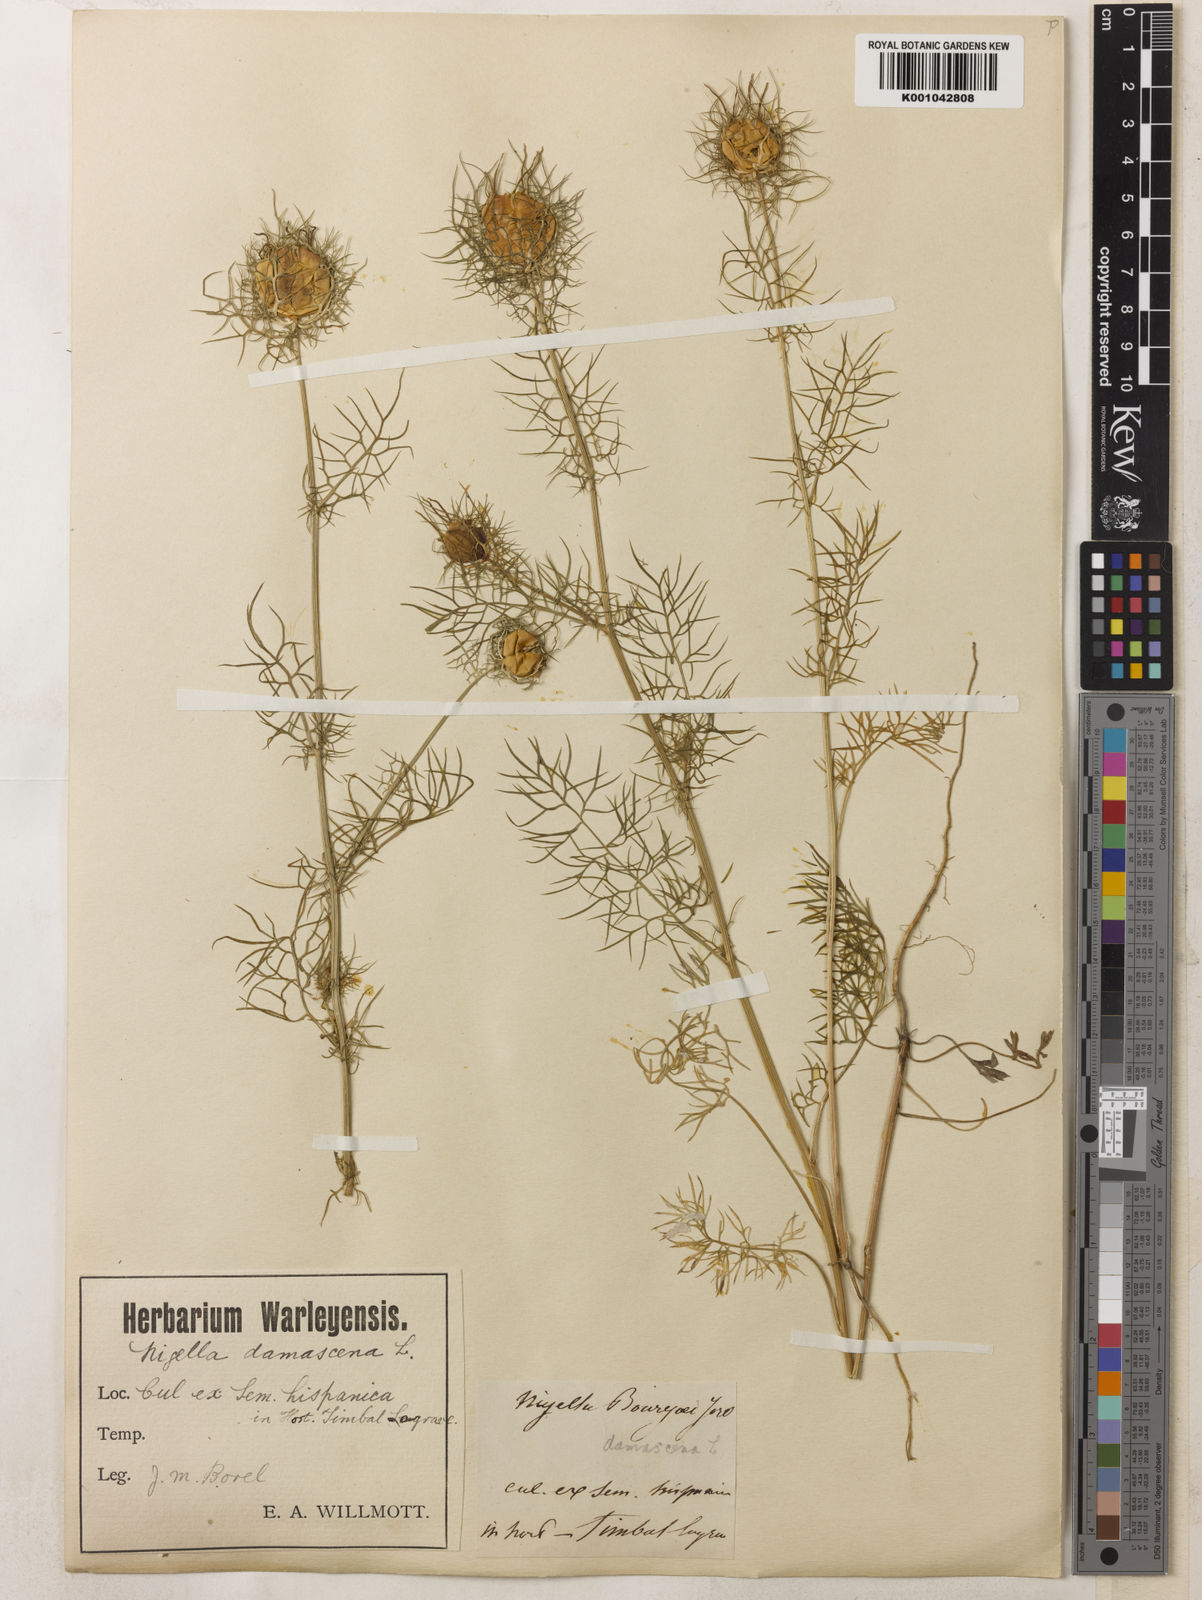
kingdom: Plantae
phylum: Tracheophyta
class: Magnoliopsida
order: Ranunculales
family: Ranunculaceae
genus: Nigella
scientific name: Nigella damascena
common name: Love-in-a-mist
